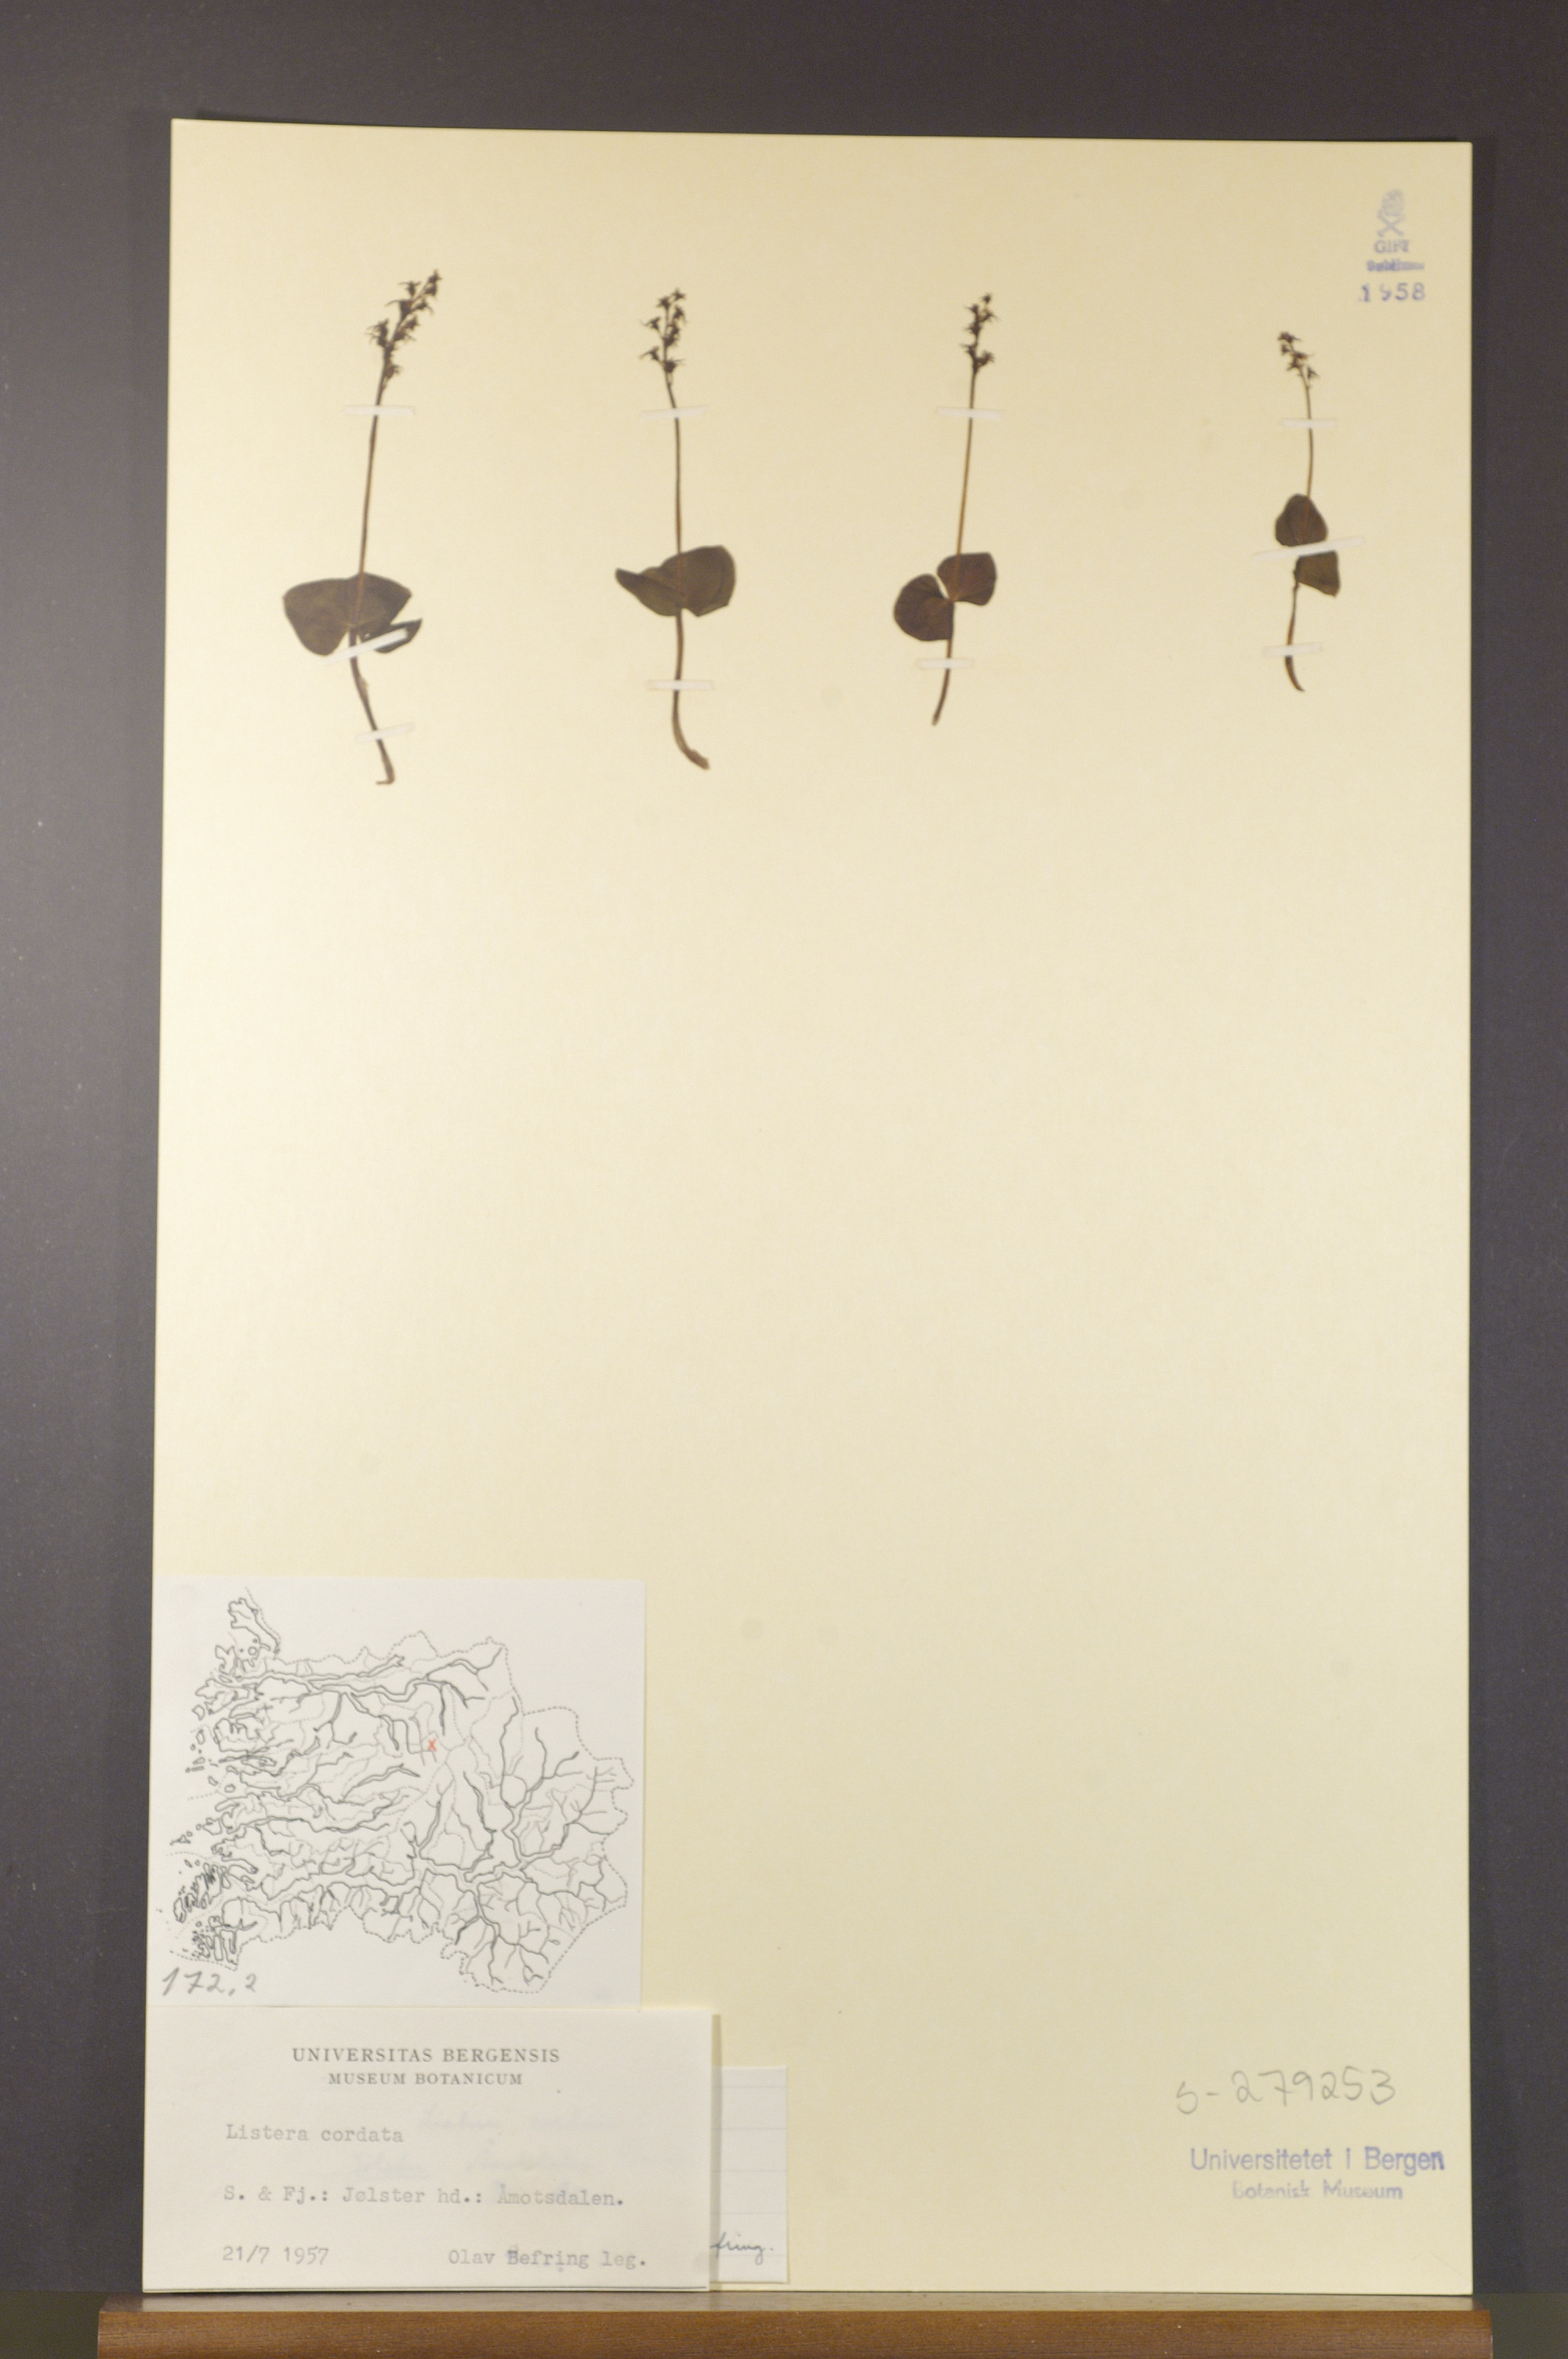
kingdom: Plantae
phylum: Tracheophyta
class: Liliopsida
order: Asparagales
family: Orchidaceae
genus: Neottia
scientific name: Neottia cordata
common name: Lesser twayblade
